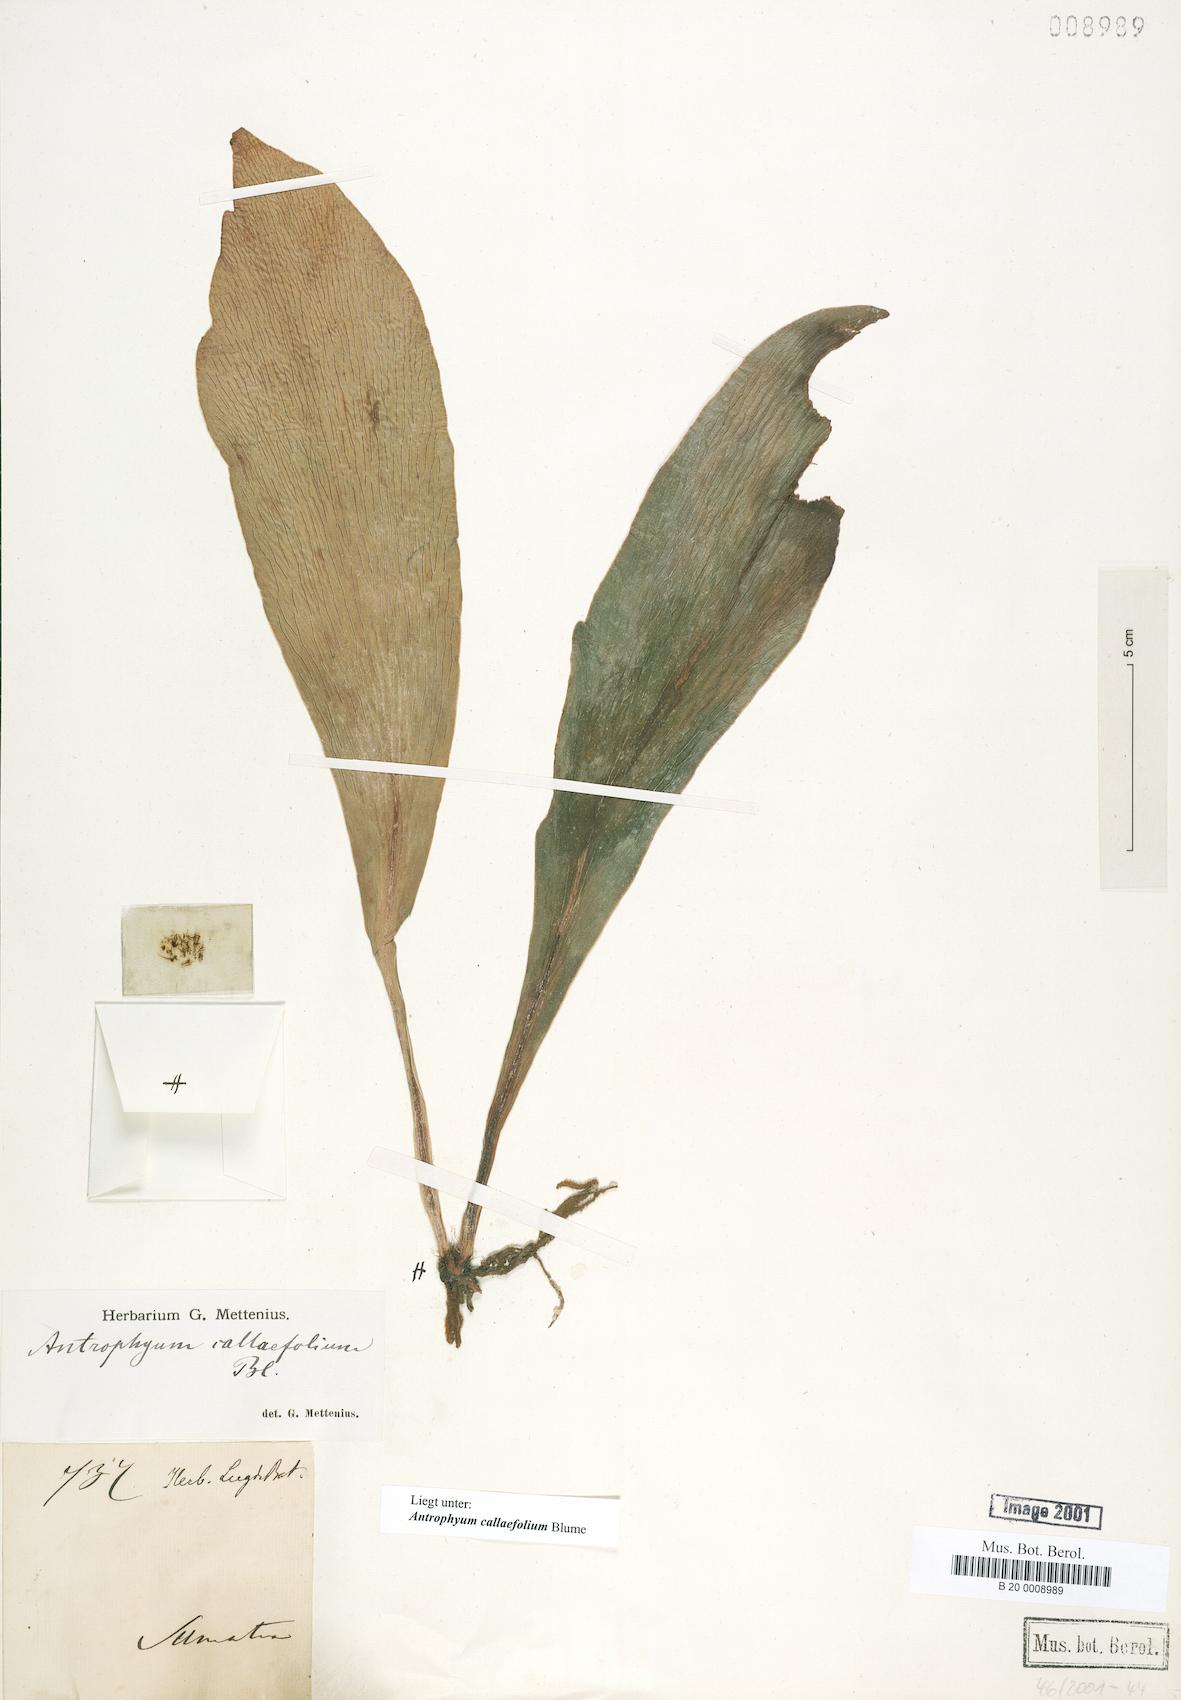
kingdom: Plantae
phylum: Tracheophyta
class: Polypodiopsida
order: Polypodiales
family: Pteridaceae
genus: Antrophyum
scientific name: Antrophyum callifolium
